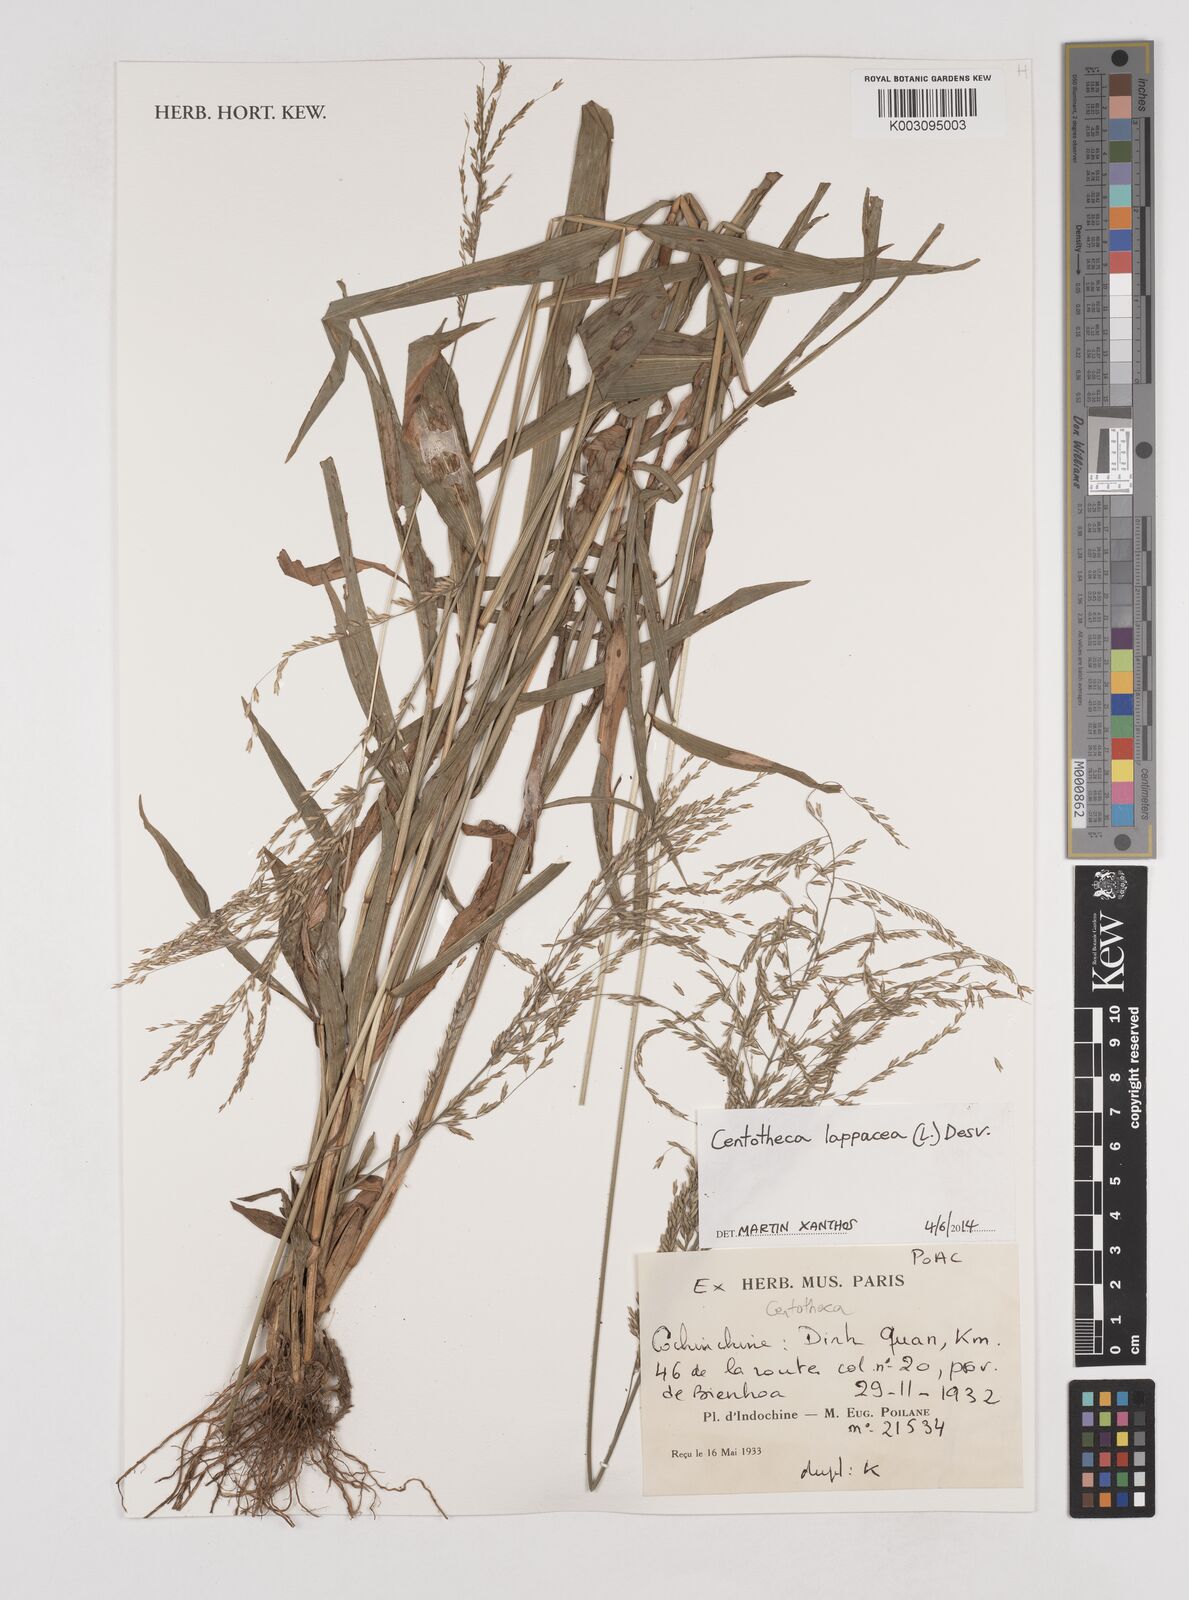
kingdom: Plantae
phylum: Tracheophyta
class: Liliopsida
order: Poales
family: Poaceae
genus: Centotheca
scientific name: Centotheca lappacea
